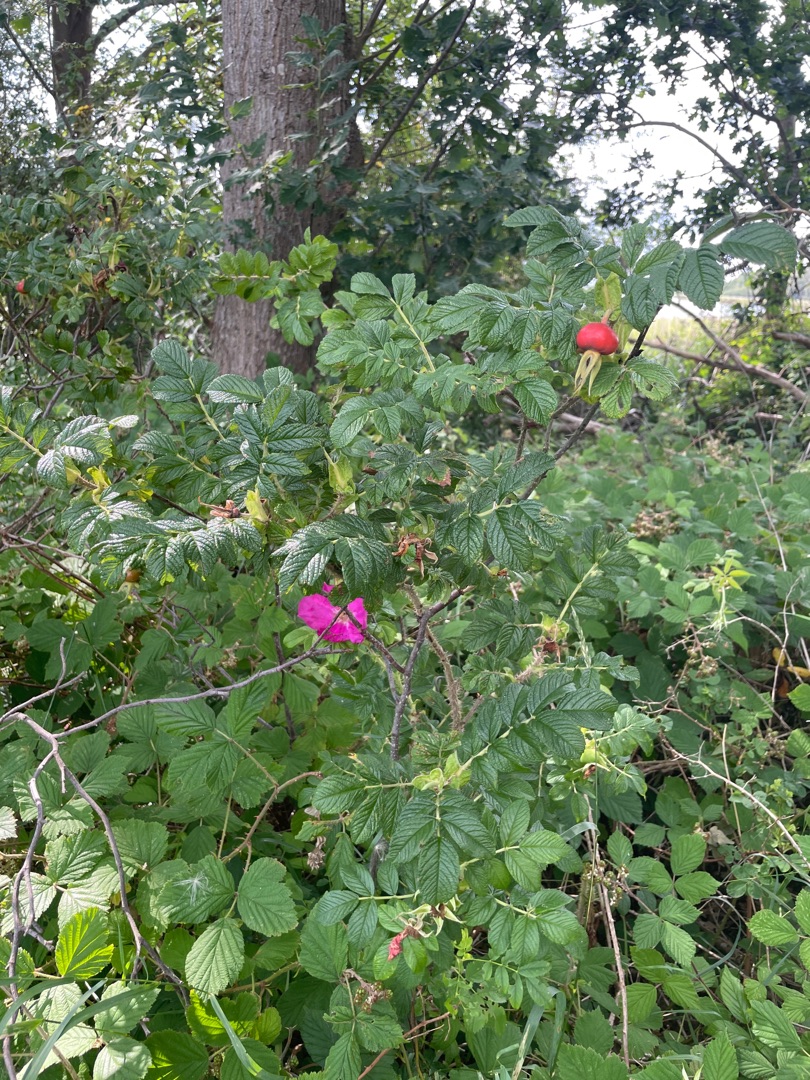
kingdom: Plantae
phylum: Tracheophyta
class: Magnoliopsida
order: Rosales
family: Rosaceae
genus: Rosa
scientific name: Rosa rugosa
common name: Rynket rose
